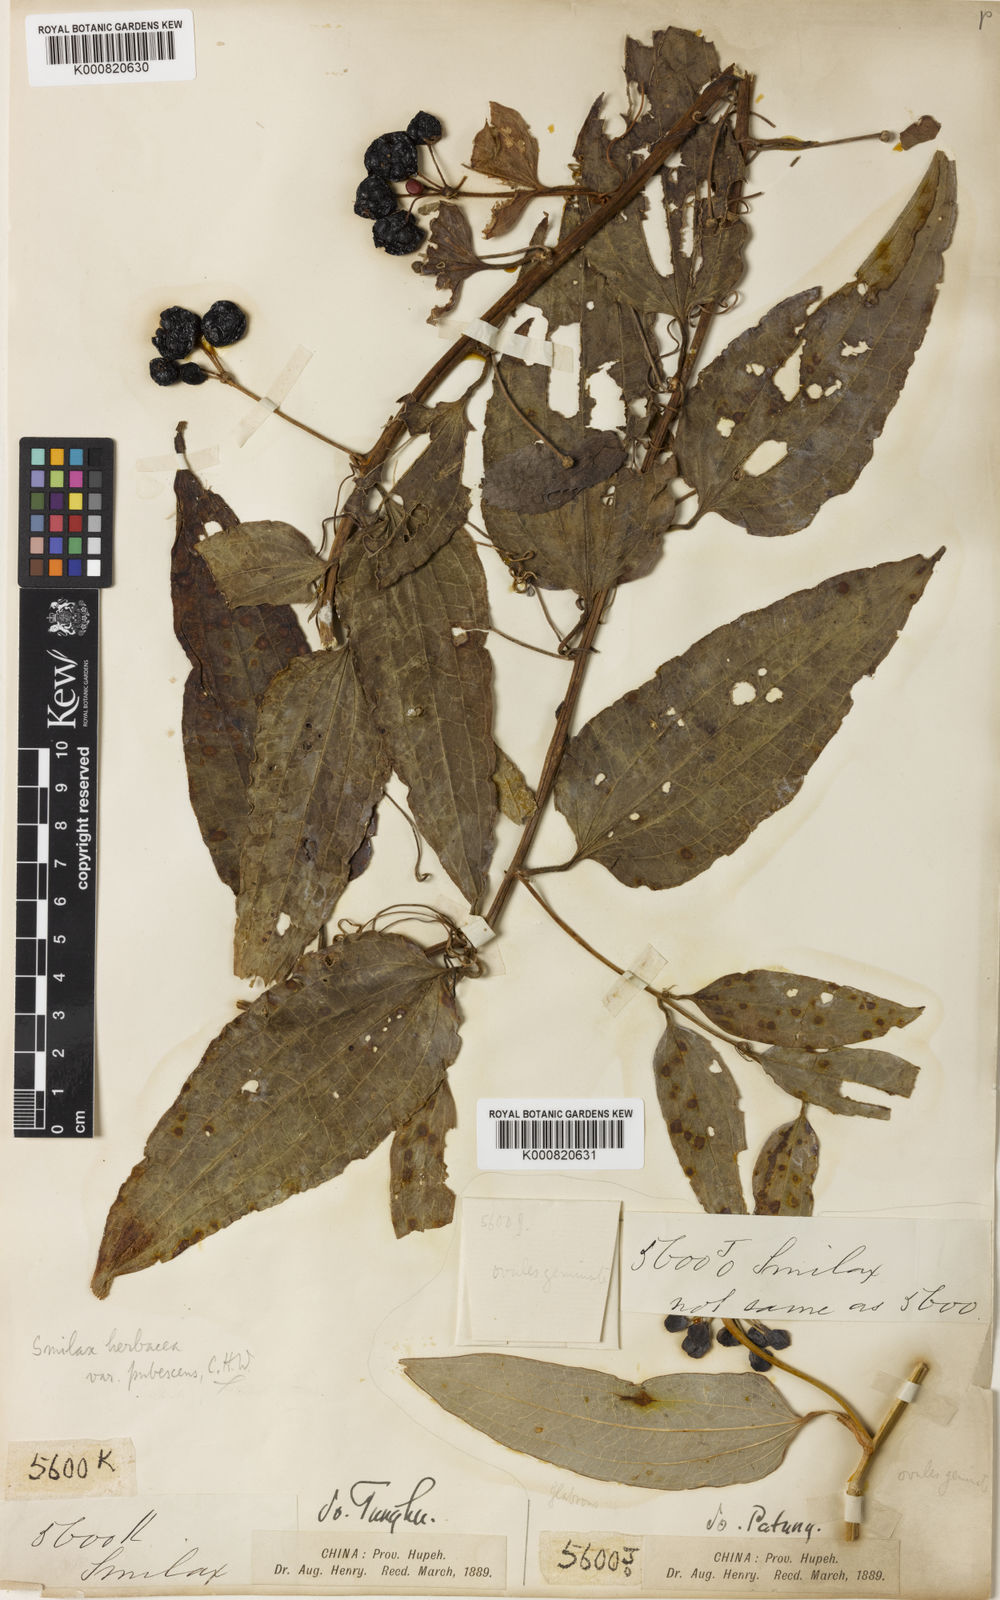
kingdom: Plantae
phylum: Tracheophyta
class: Liliopsida
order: Liliales
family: Smilacaceae
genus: Smilax
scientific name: Smilax riparia
